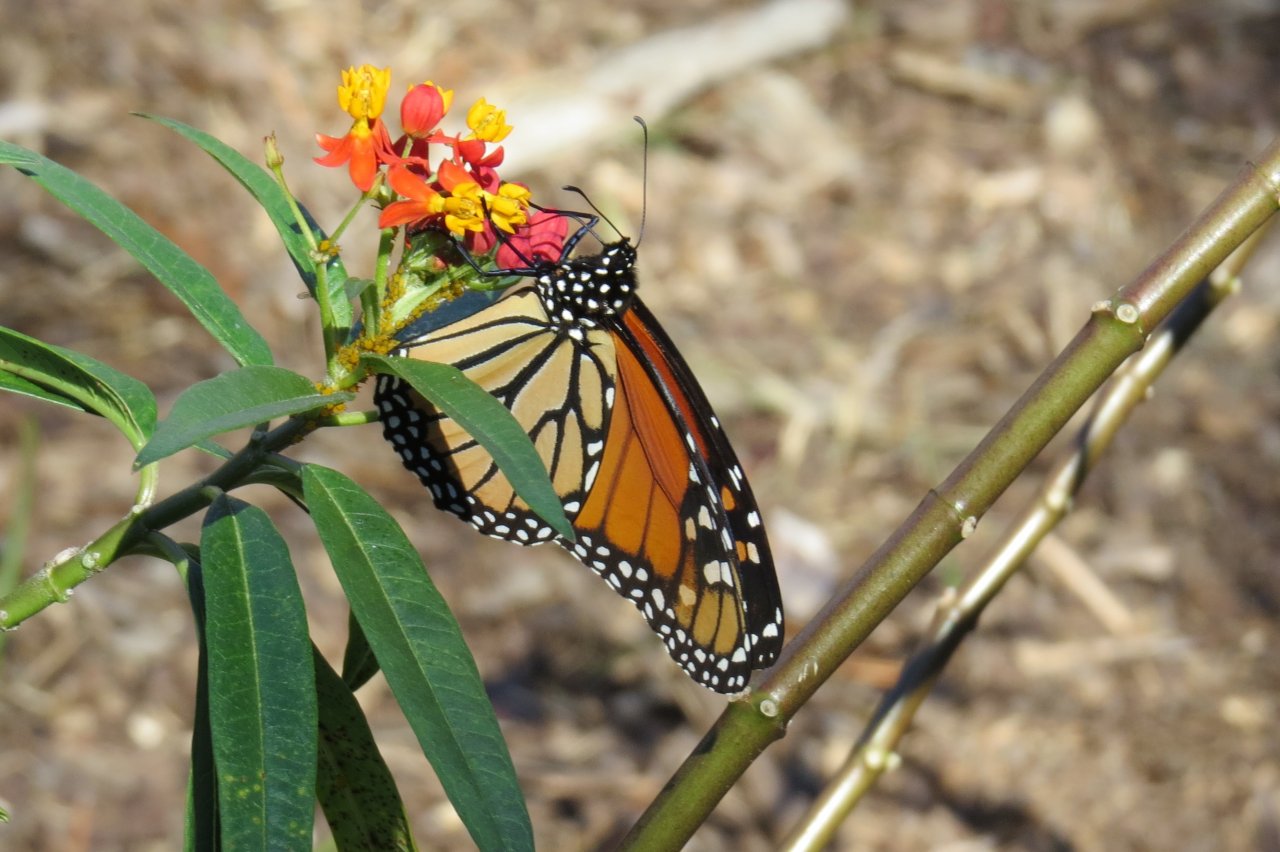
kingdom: Animalia
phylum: Arthropoda
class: Insecta
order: Lepidoptera
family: Nymphalidae
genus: Danaus
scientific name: Danaus plexippus
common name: Monarch
